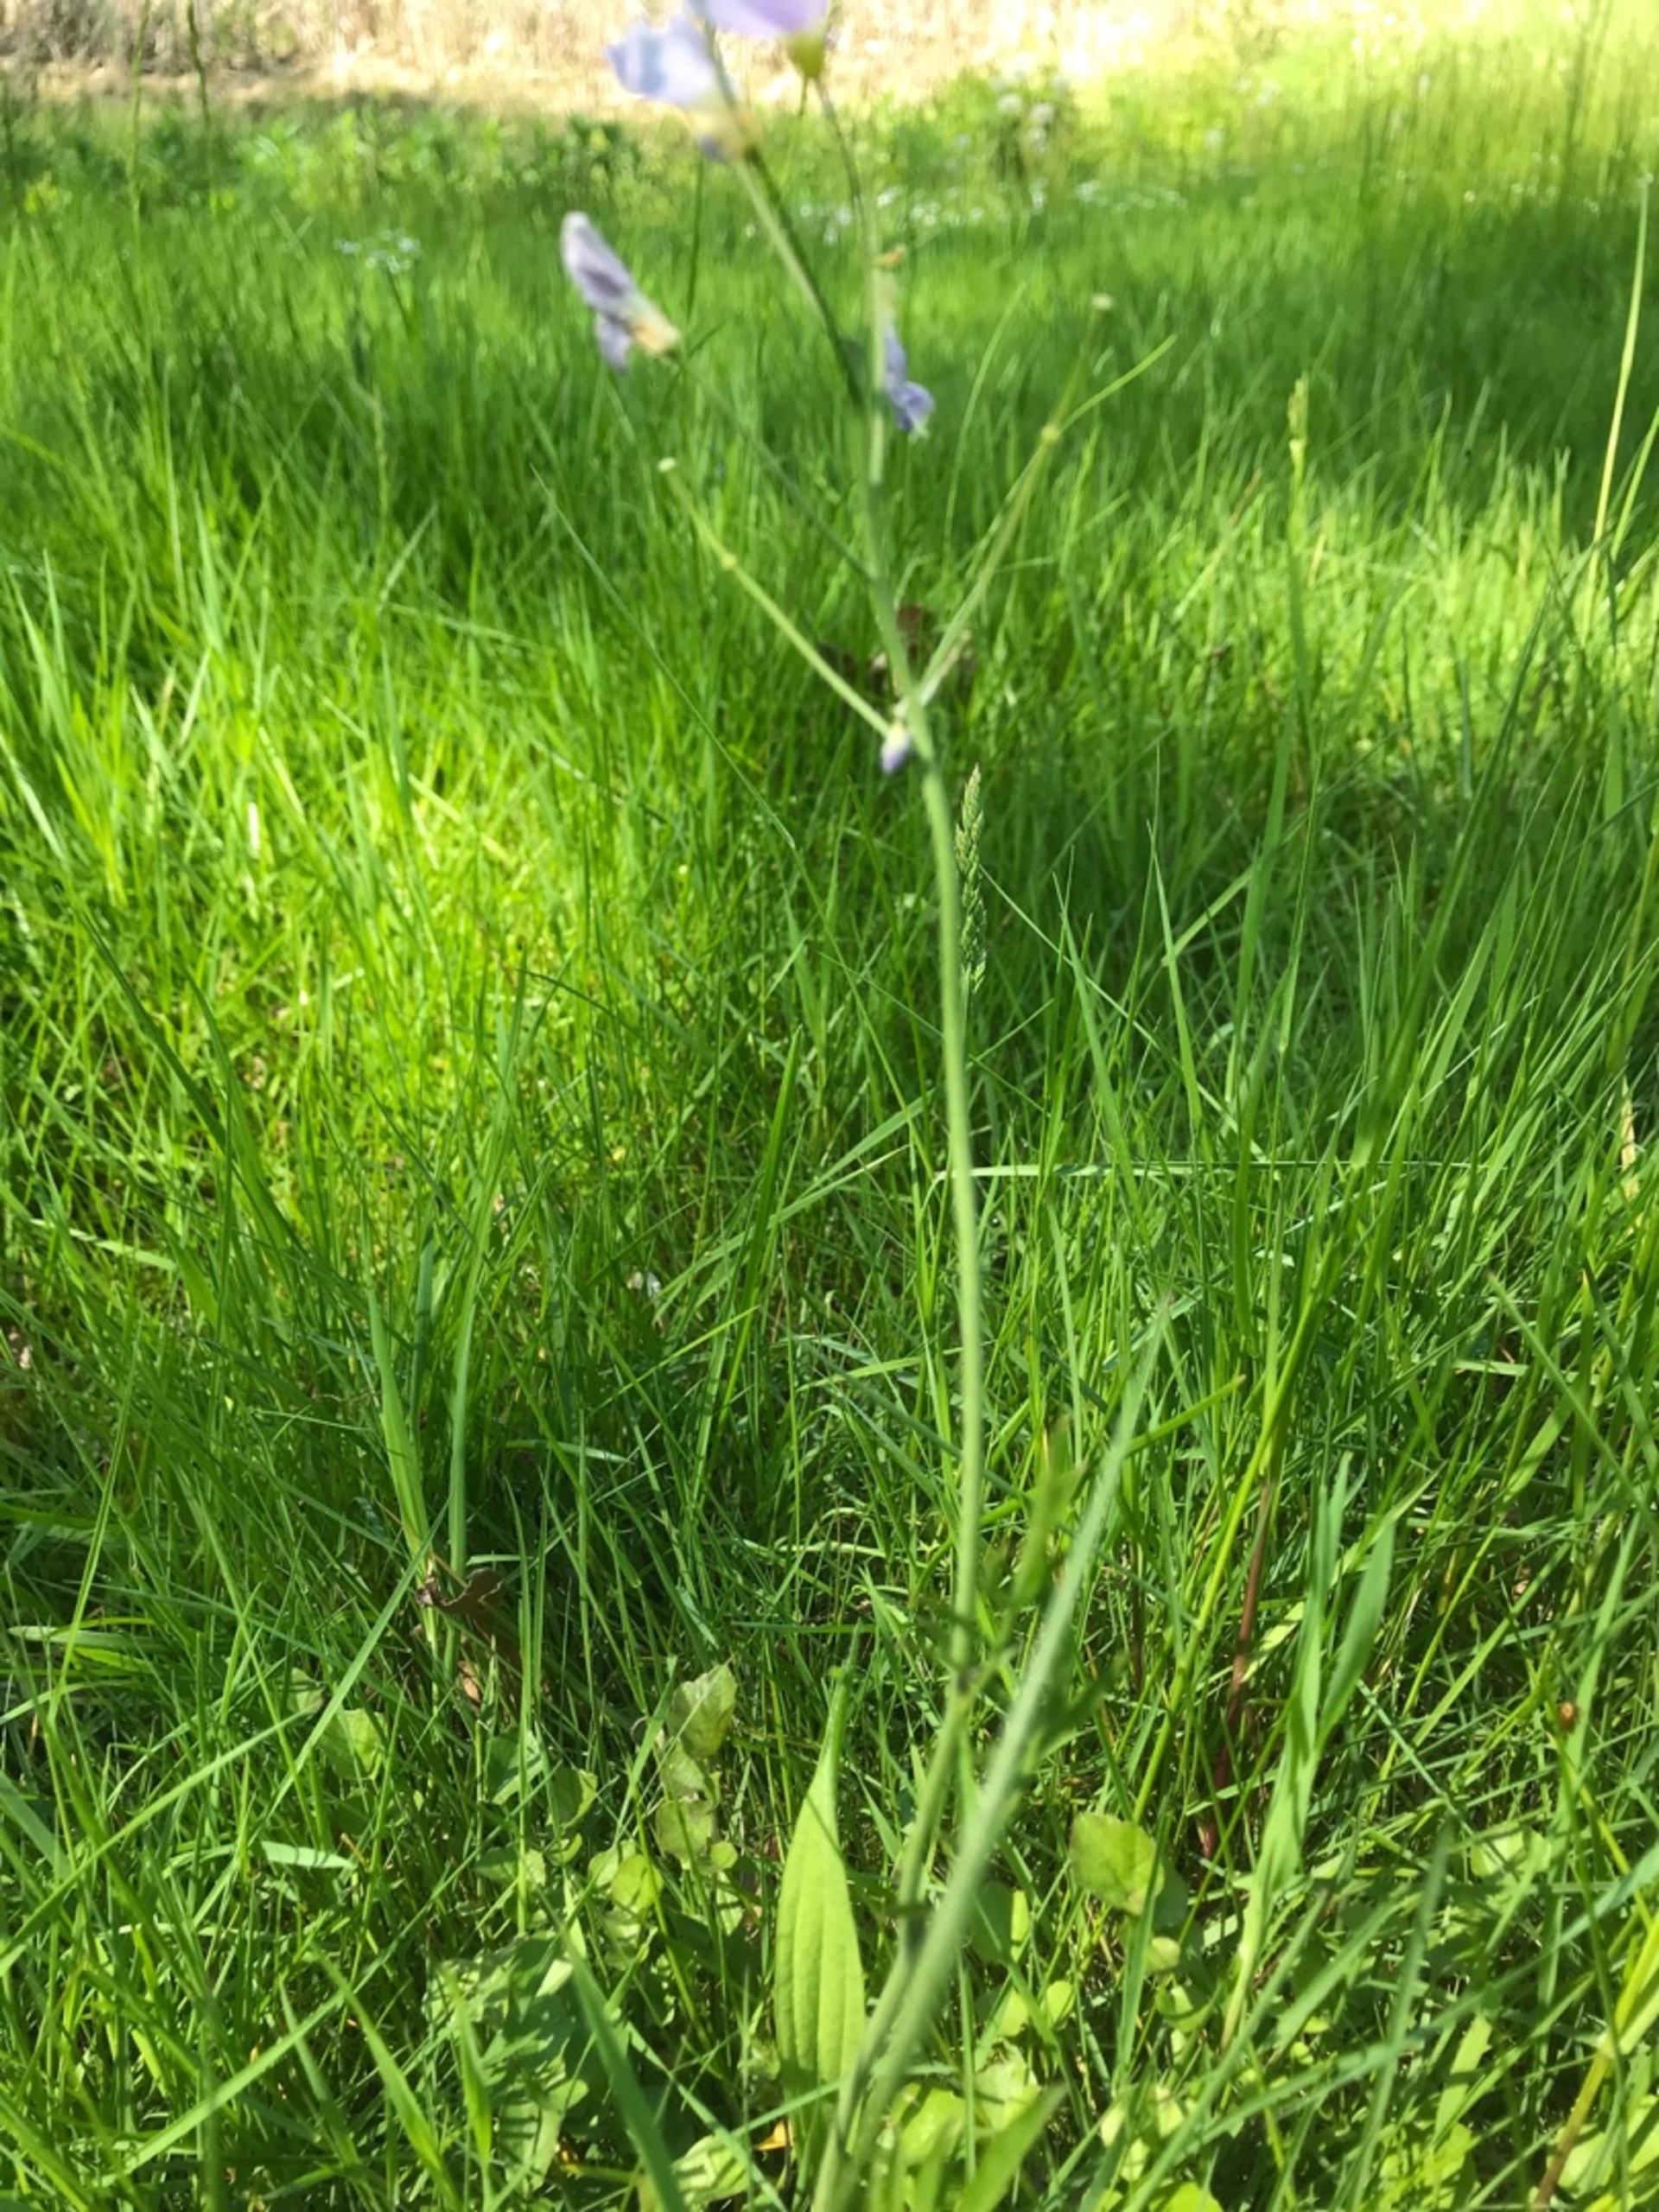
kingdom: Plantae
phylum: Tracheophyta
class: Magnoliopsida
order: Brassicales
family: Brassicaceae
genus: Cardamine
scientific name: Cardamine pratensis
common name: Engkarse
